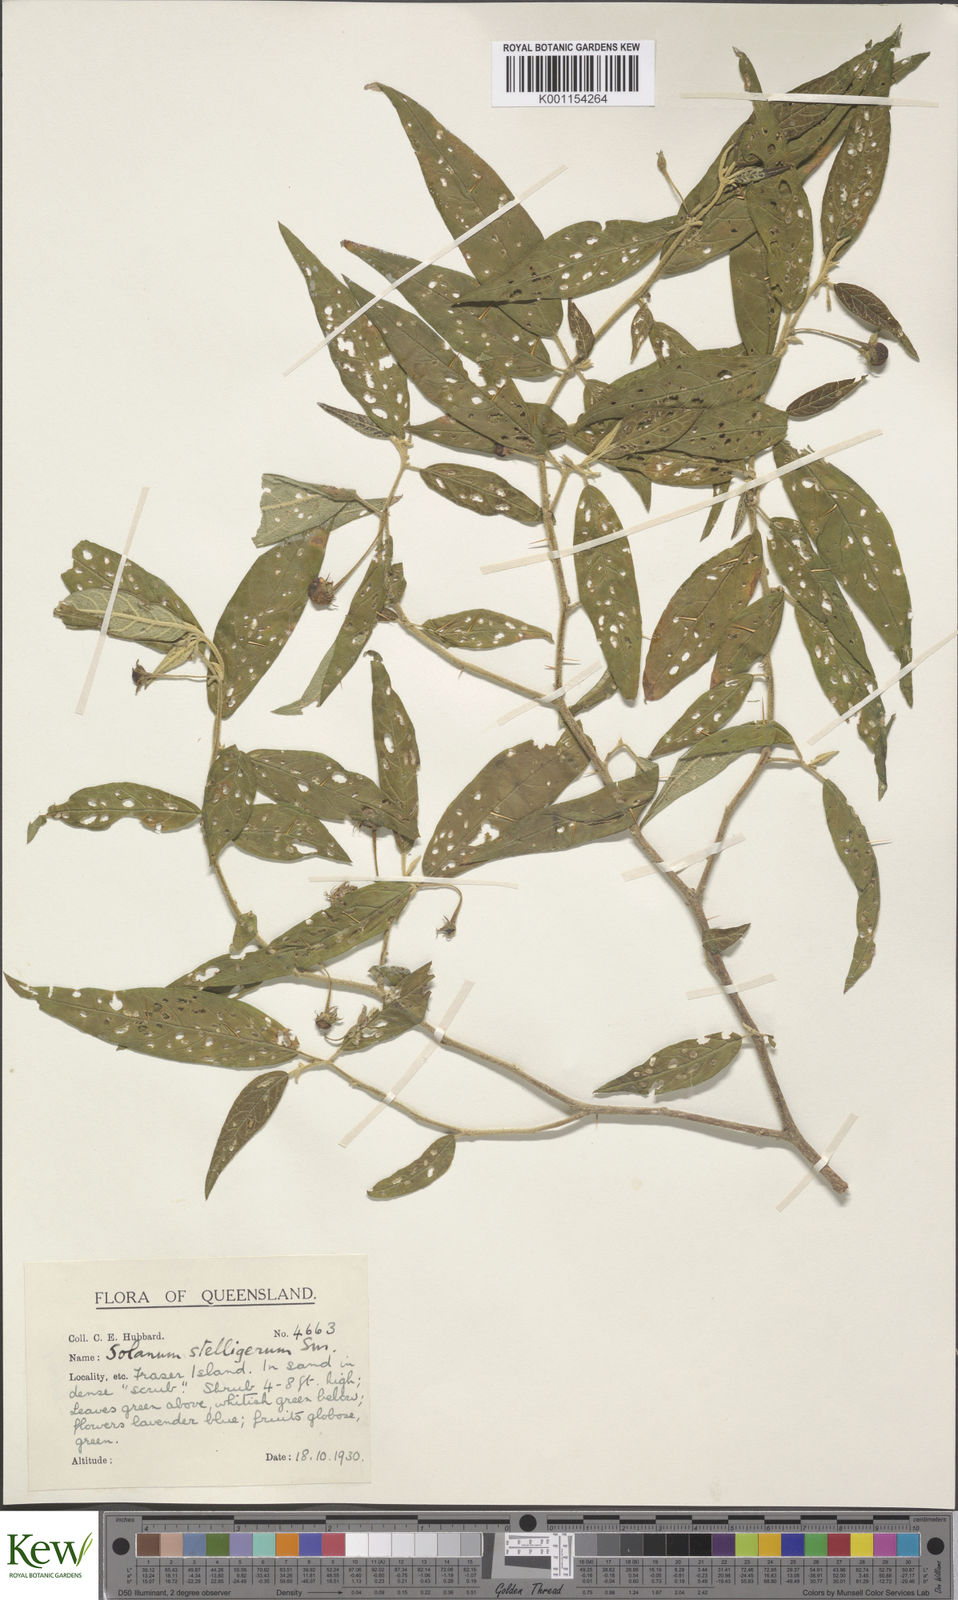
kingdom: Plantae
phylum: Tracheophyta
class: Magnoliopsida
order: Solanales
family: Solanaceae
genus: Solanum
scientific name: Solanum stelligerum
